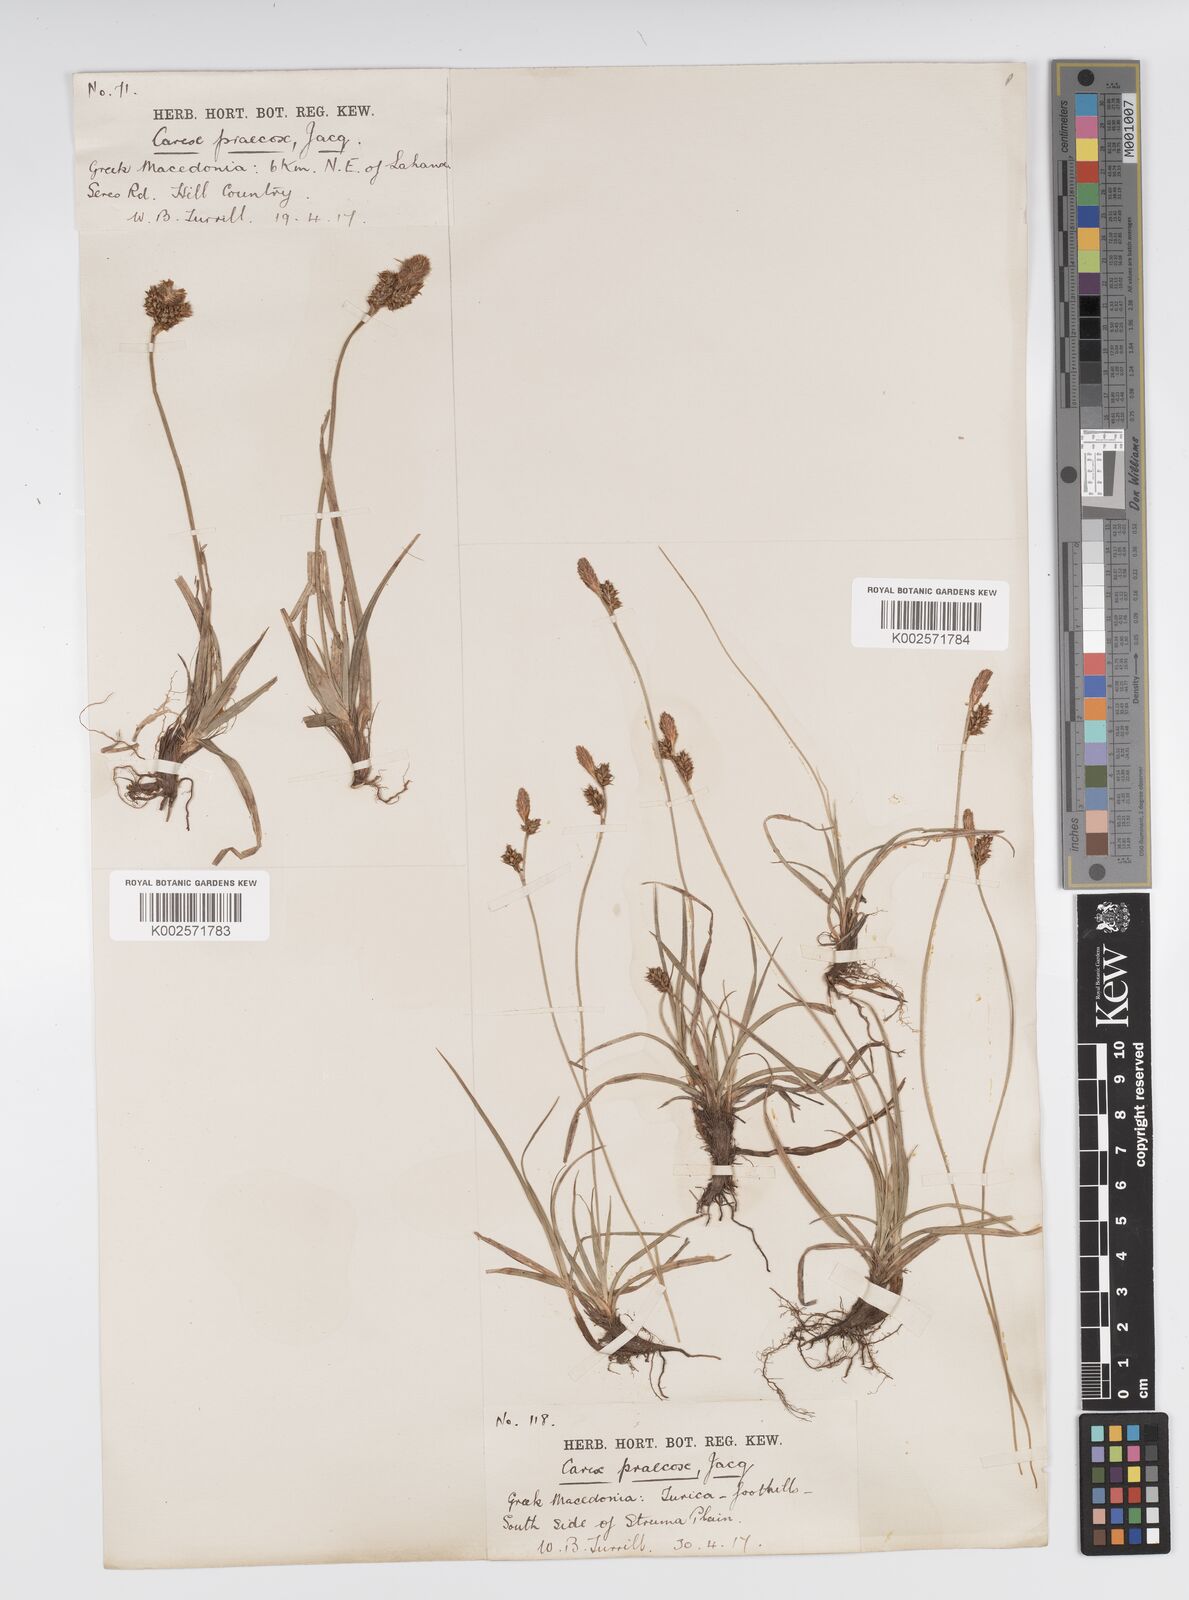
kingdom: Plantae
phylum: Tracheophyta
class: Liliopsida
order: Poales
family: Cyperaceae
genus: Carex
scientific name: Carex caryophyllea
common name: Spring sedge
